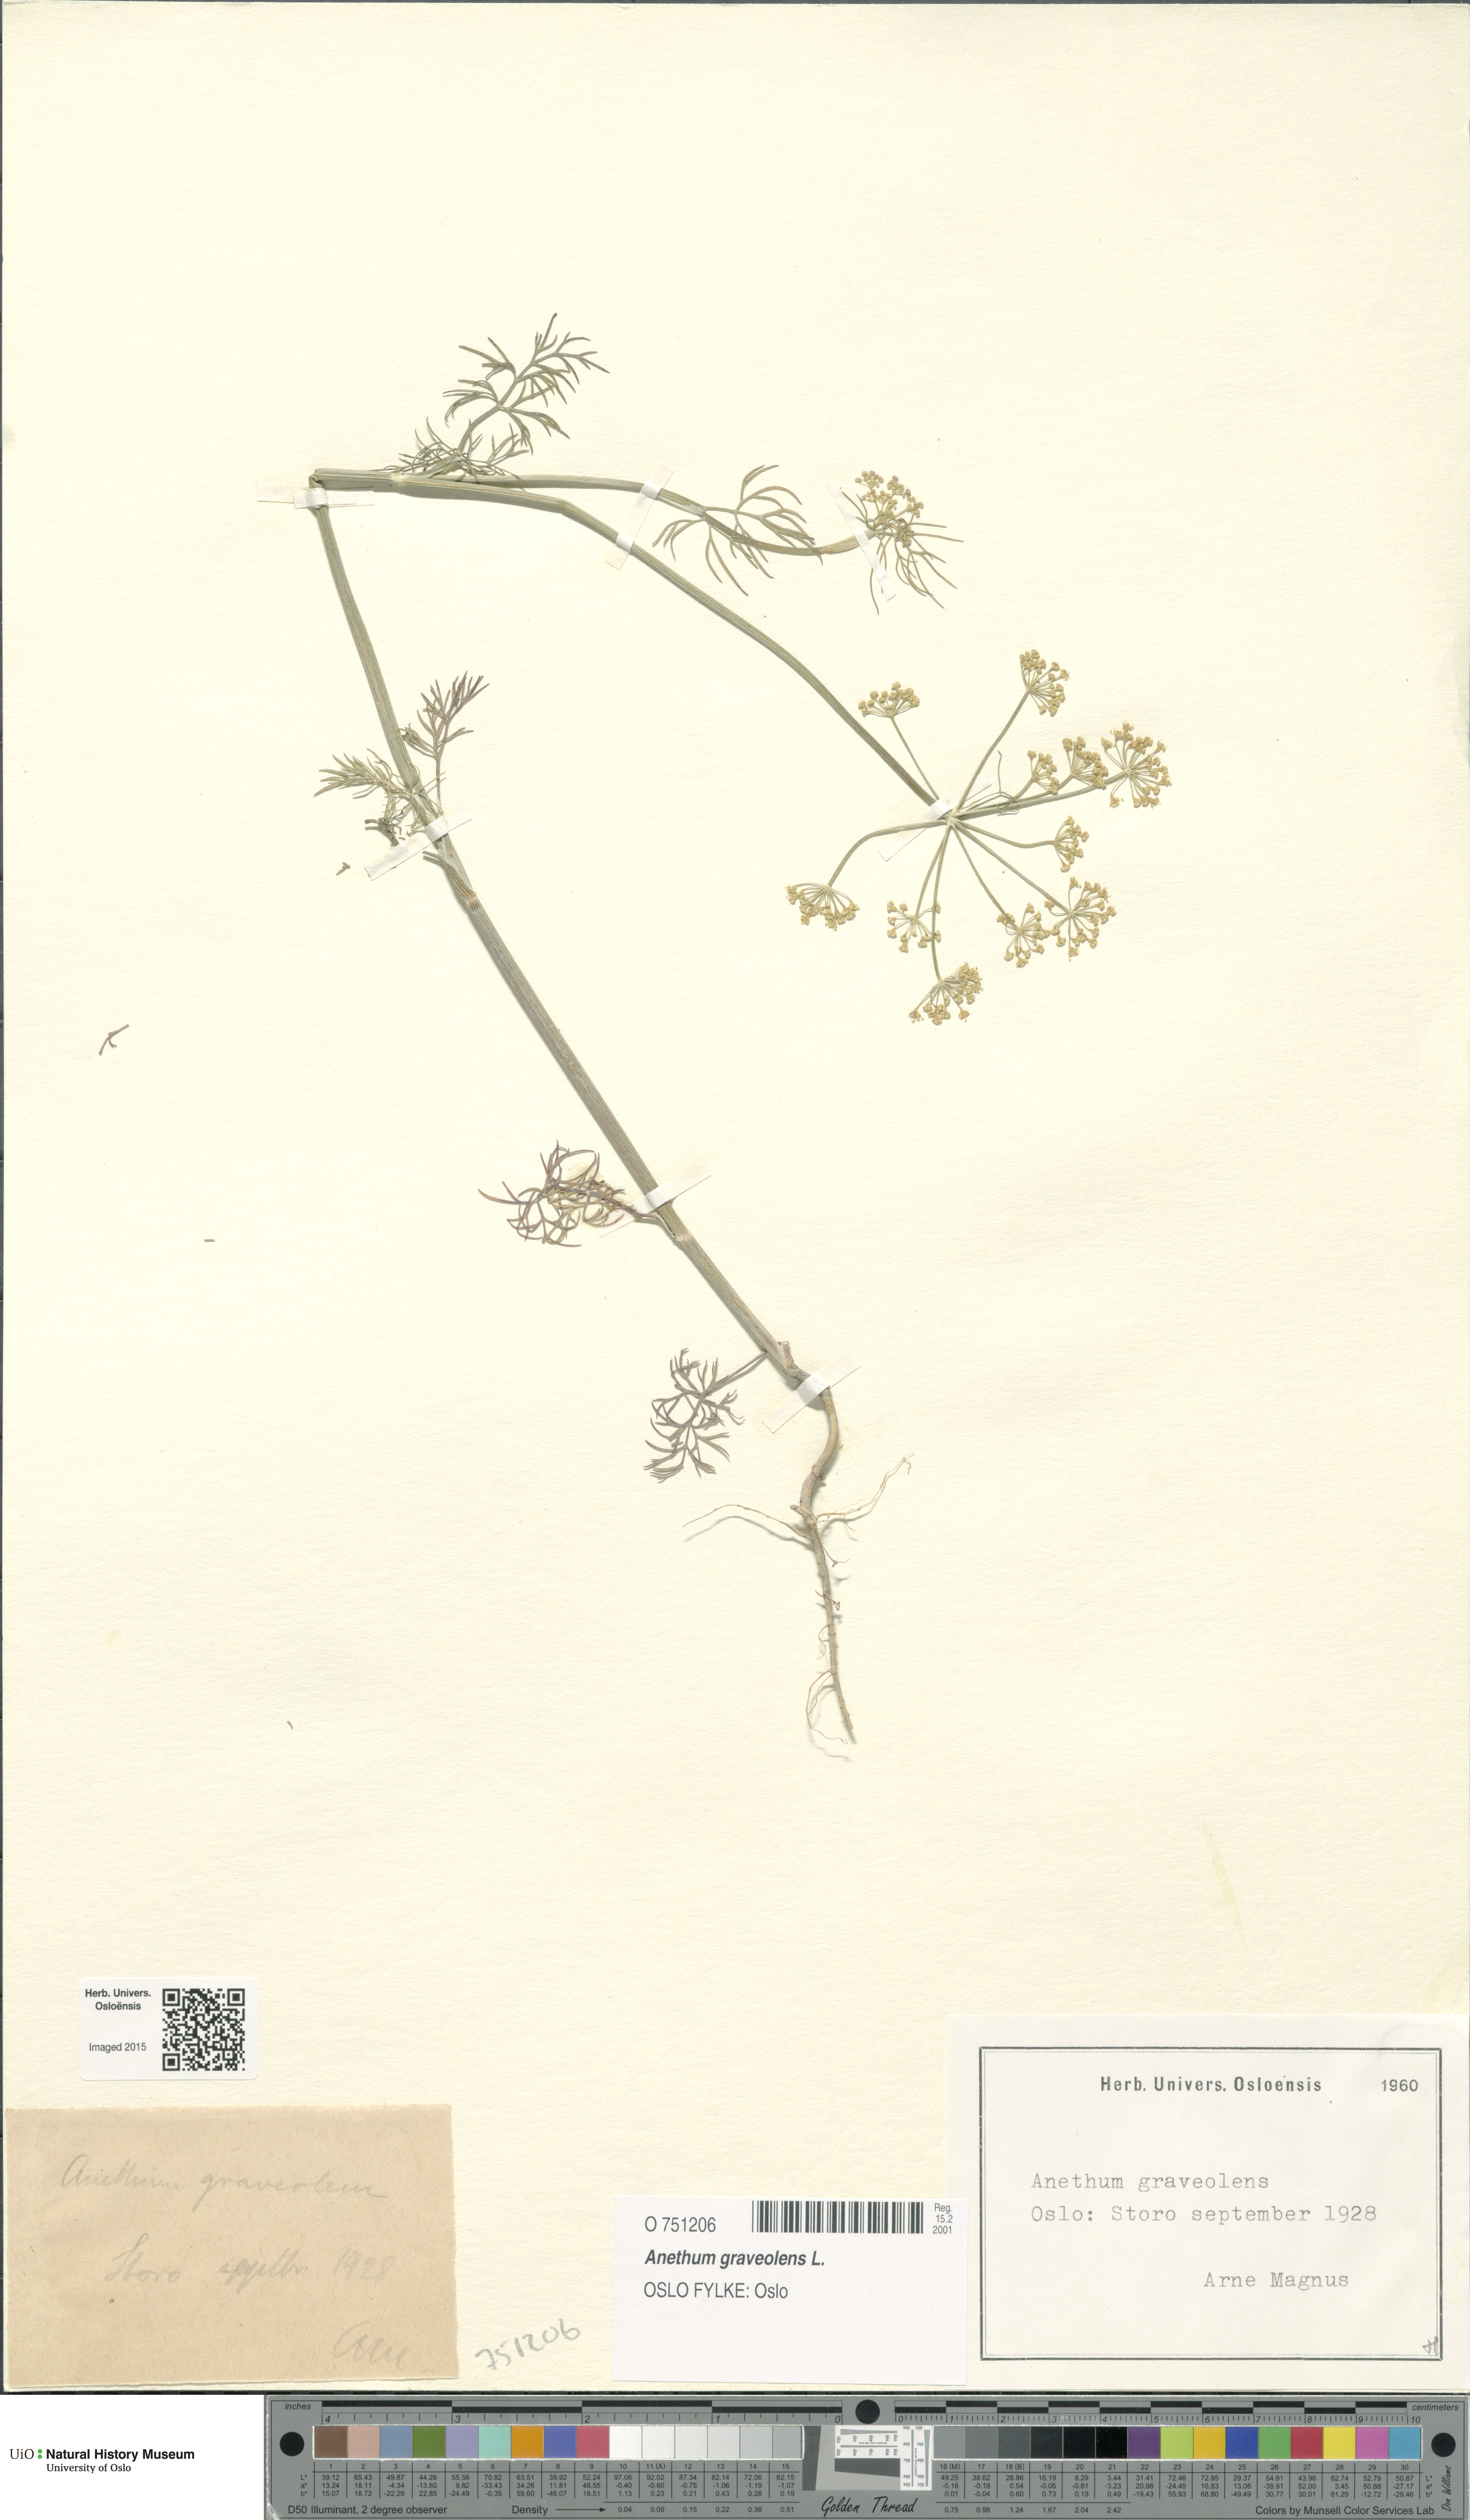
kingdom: Plantae
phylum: Tracheophyta
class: Magnoliopsida
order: Apiales
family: Apiaceae
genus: Anethum
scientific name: Anethum graveolens
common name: Dill
